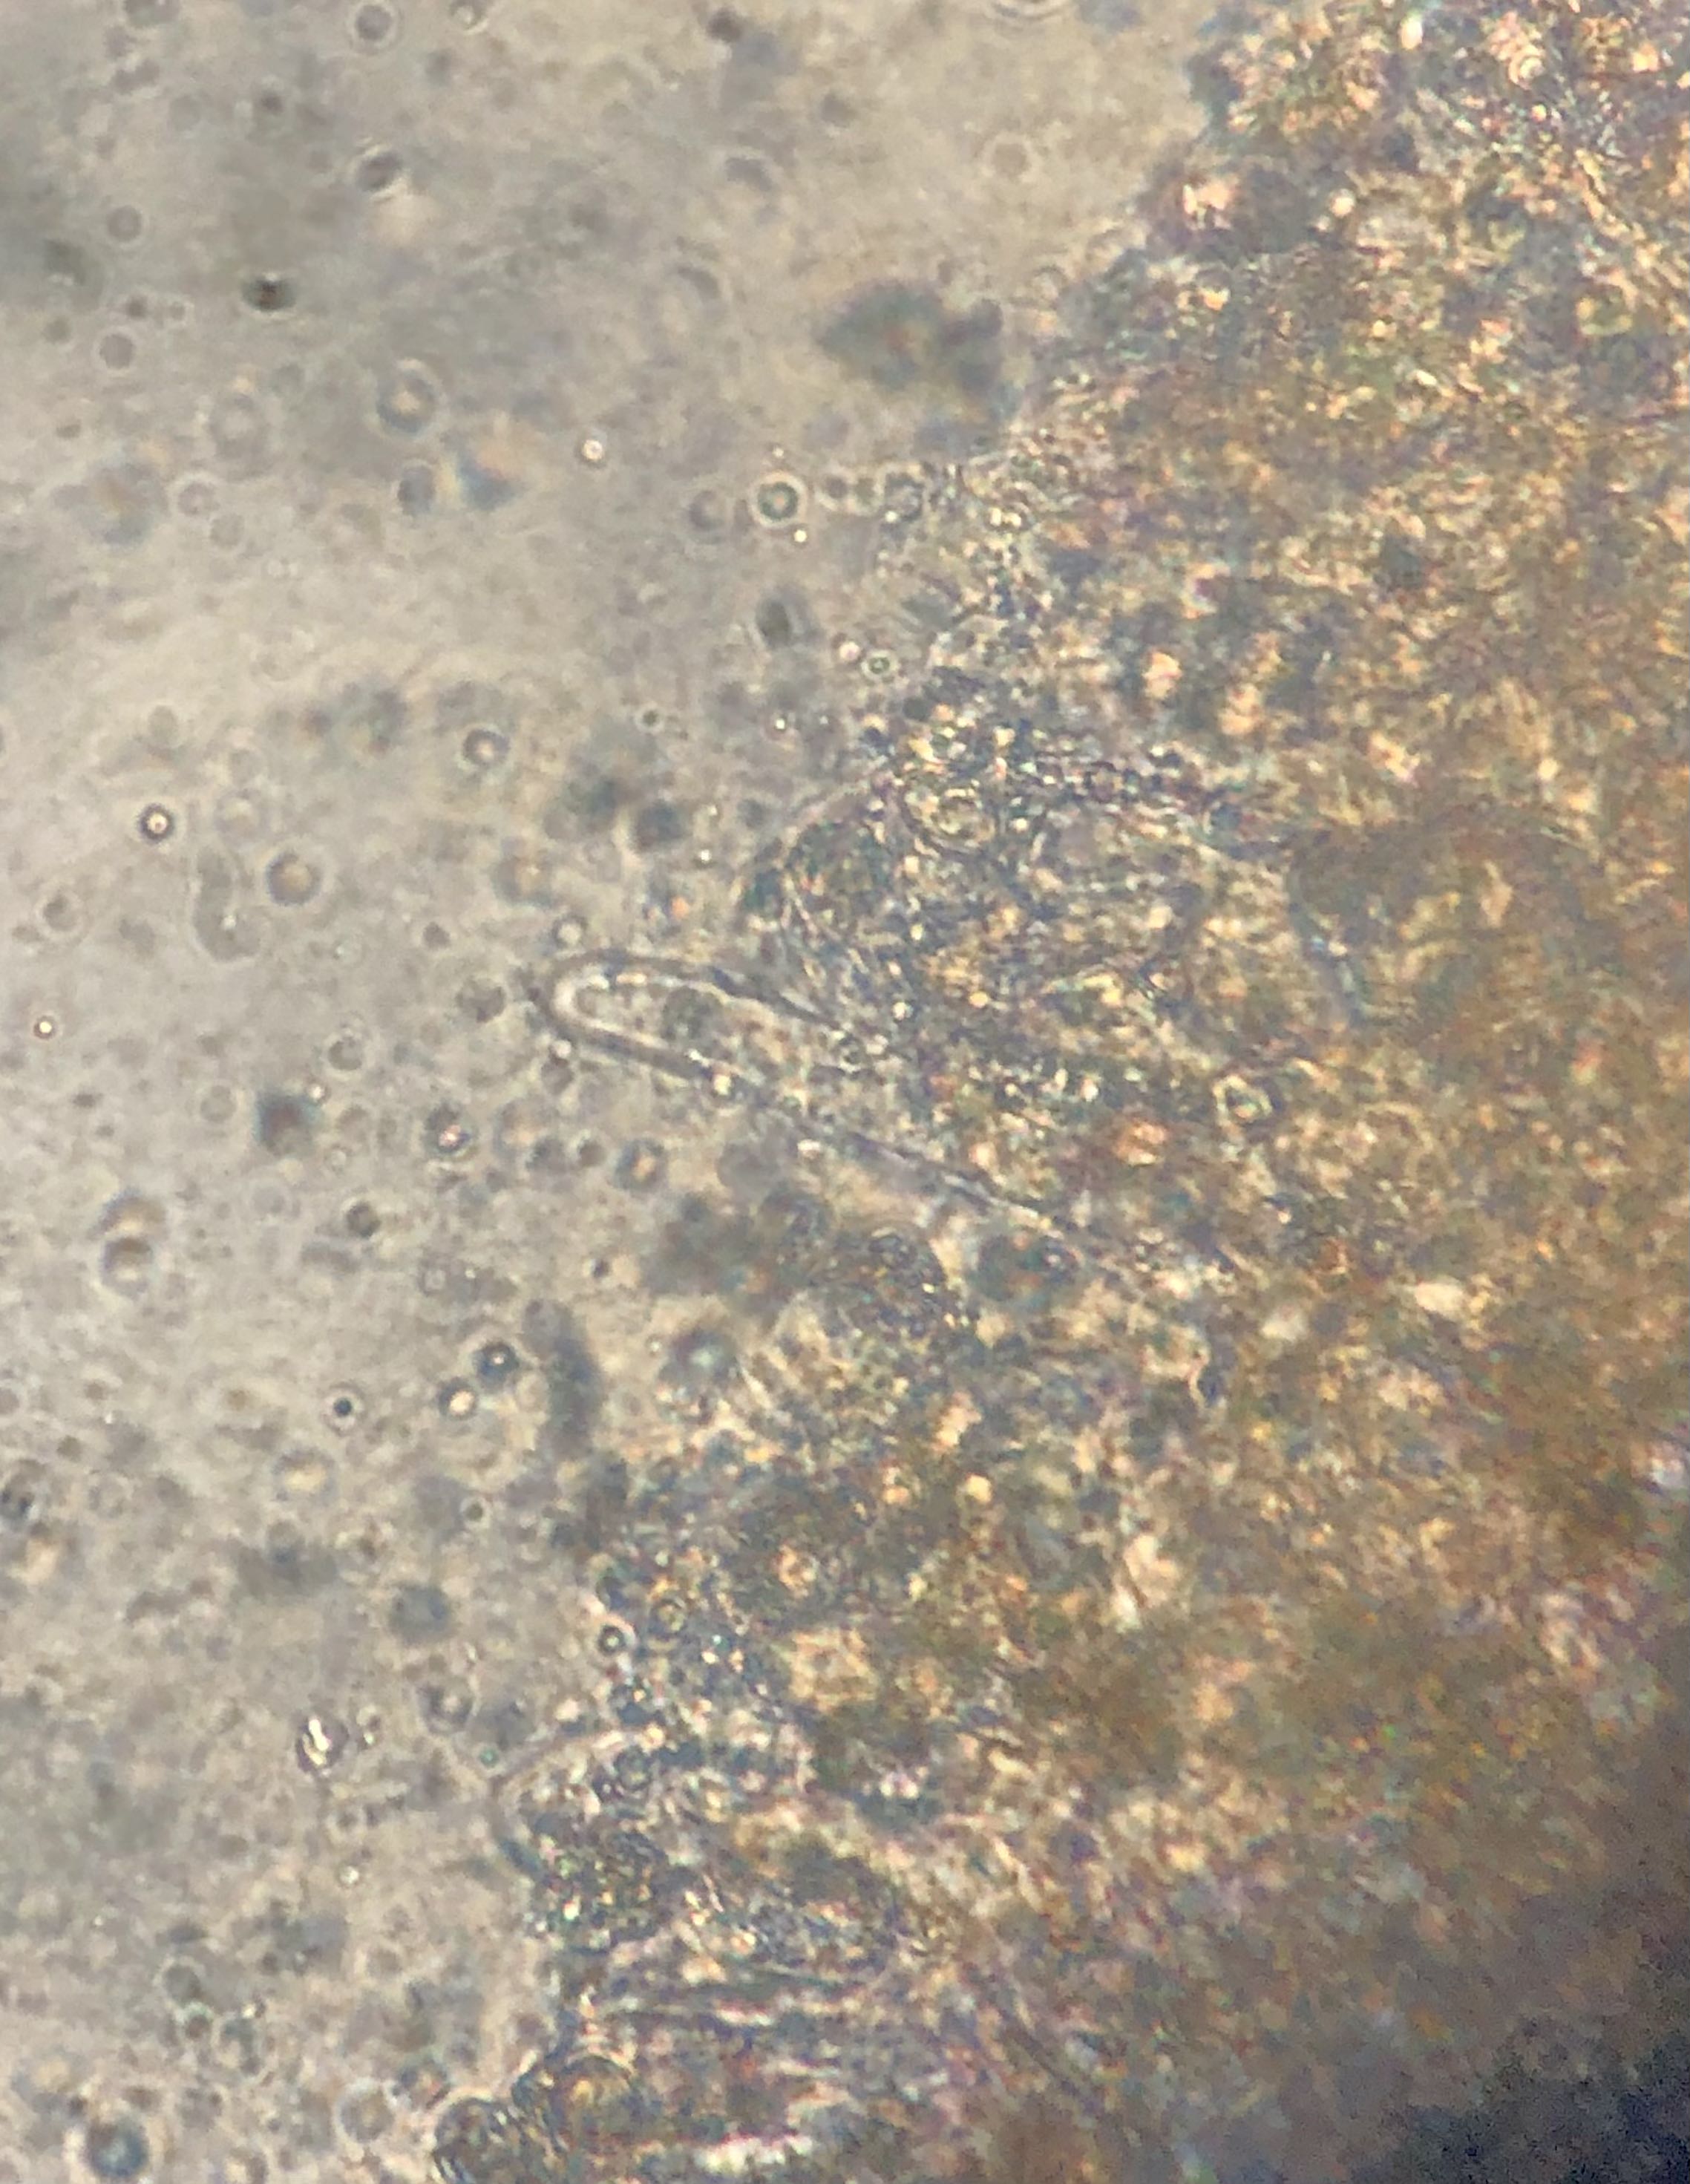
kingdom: Fungi
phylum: Basidiomycota
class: Agaricomycetes
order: Agaricales
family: Entolomataceae
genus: Entoloma
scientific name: Entoloma glaucobasis
